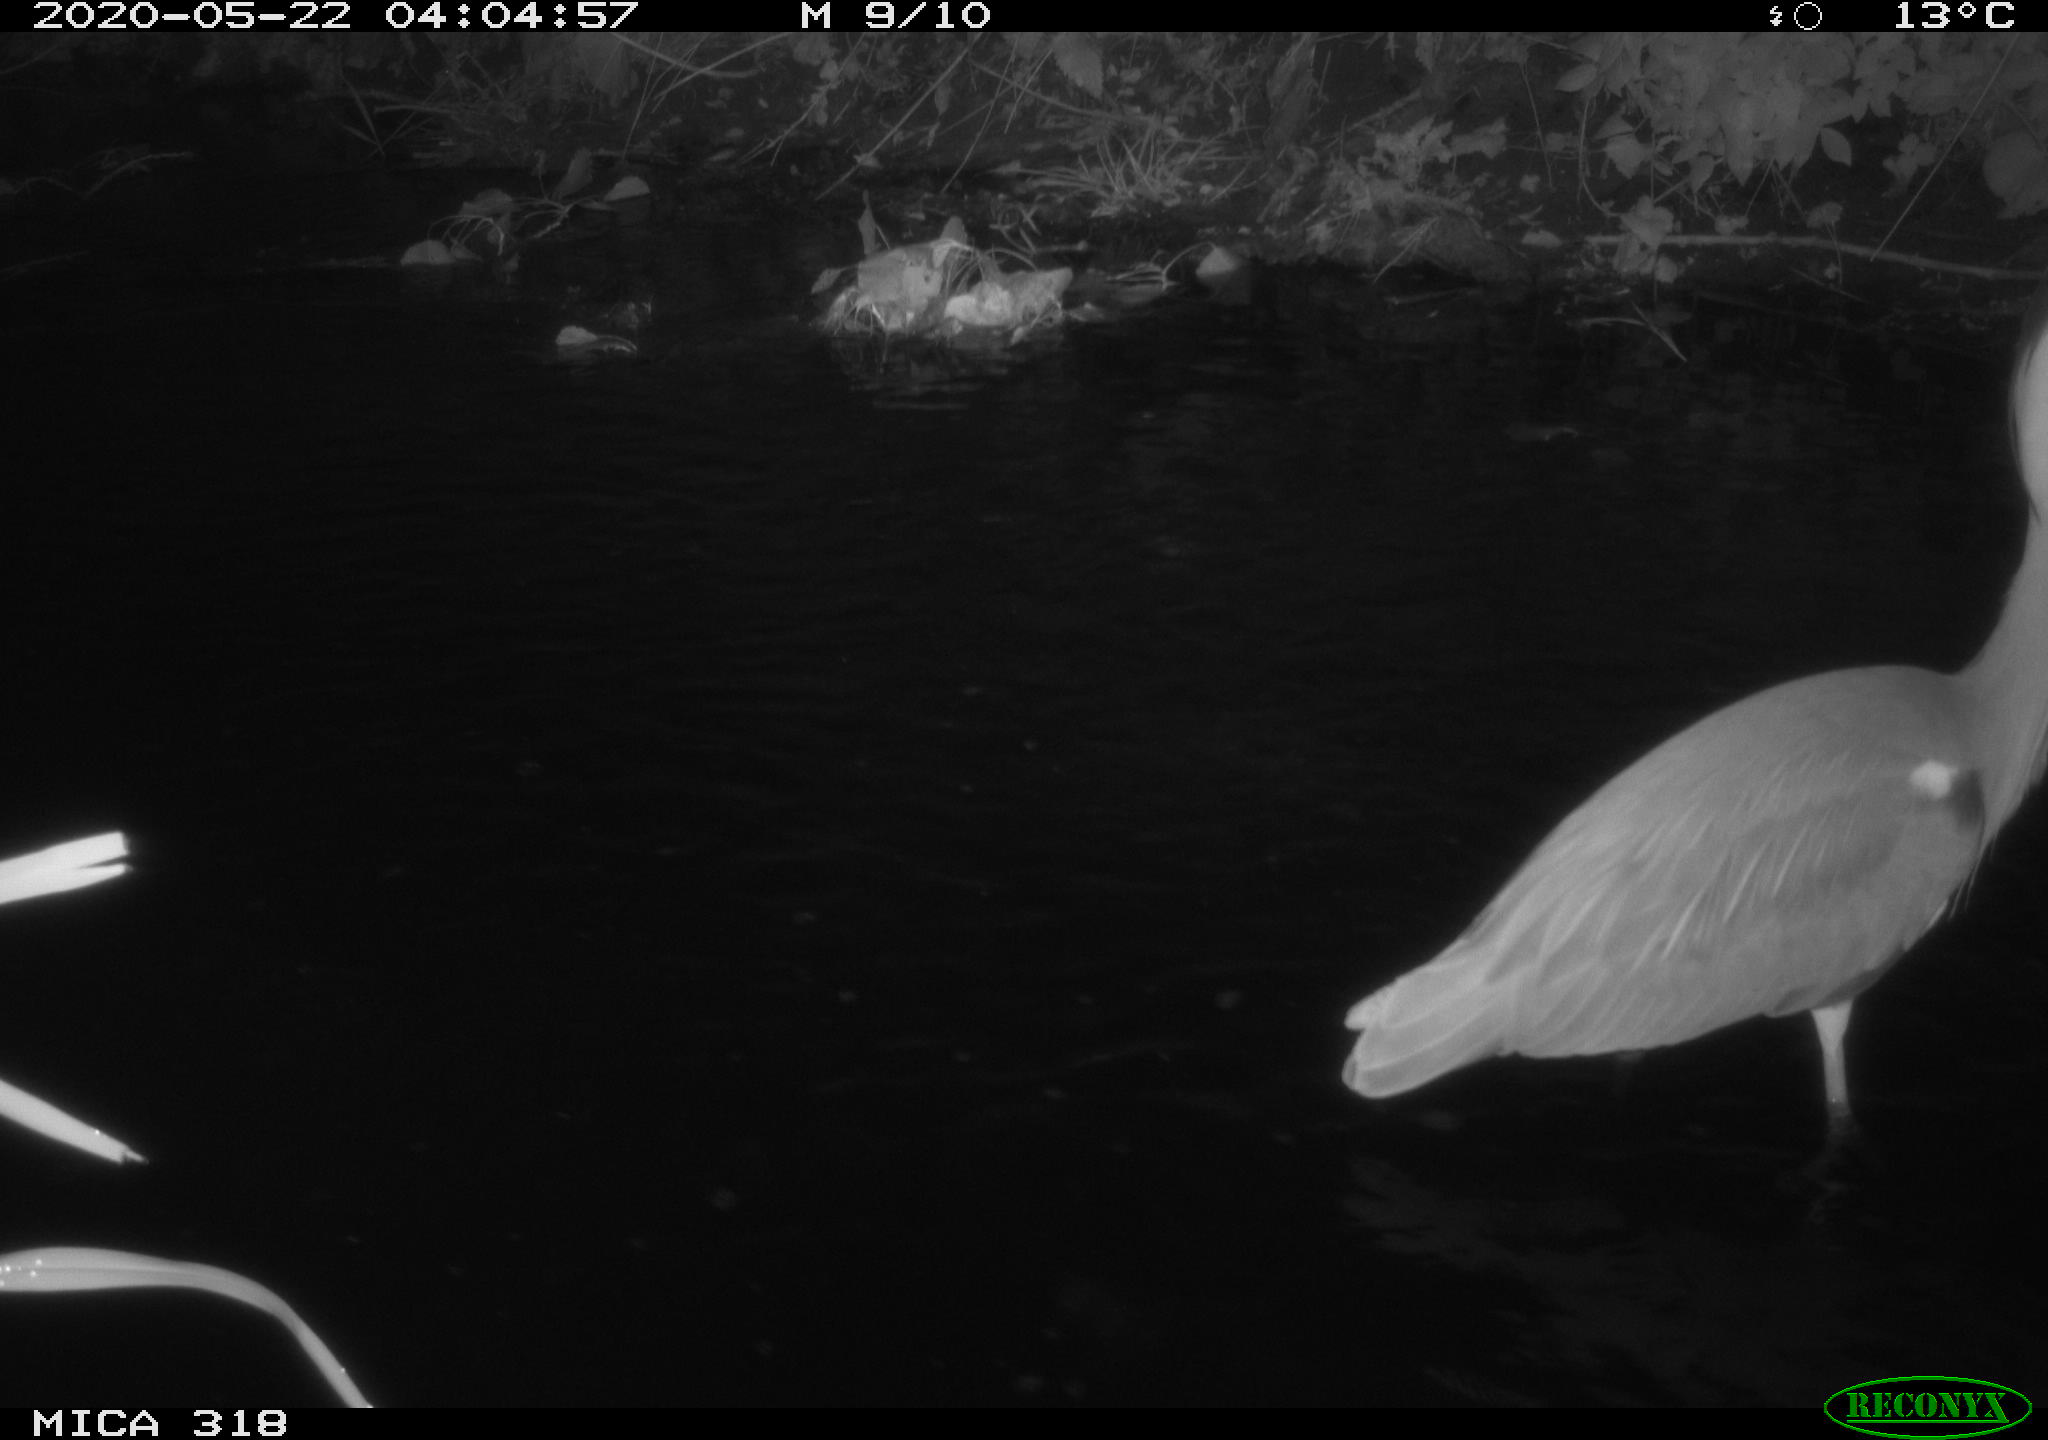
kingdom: Animalia
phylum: Chordata
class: Aves
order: Pelecaniformes
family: Ardeidae
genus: Ardea
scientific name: Ardea cinerea
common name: Grey heron
